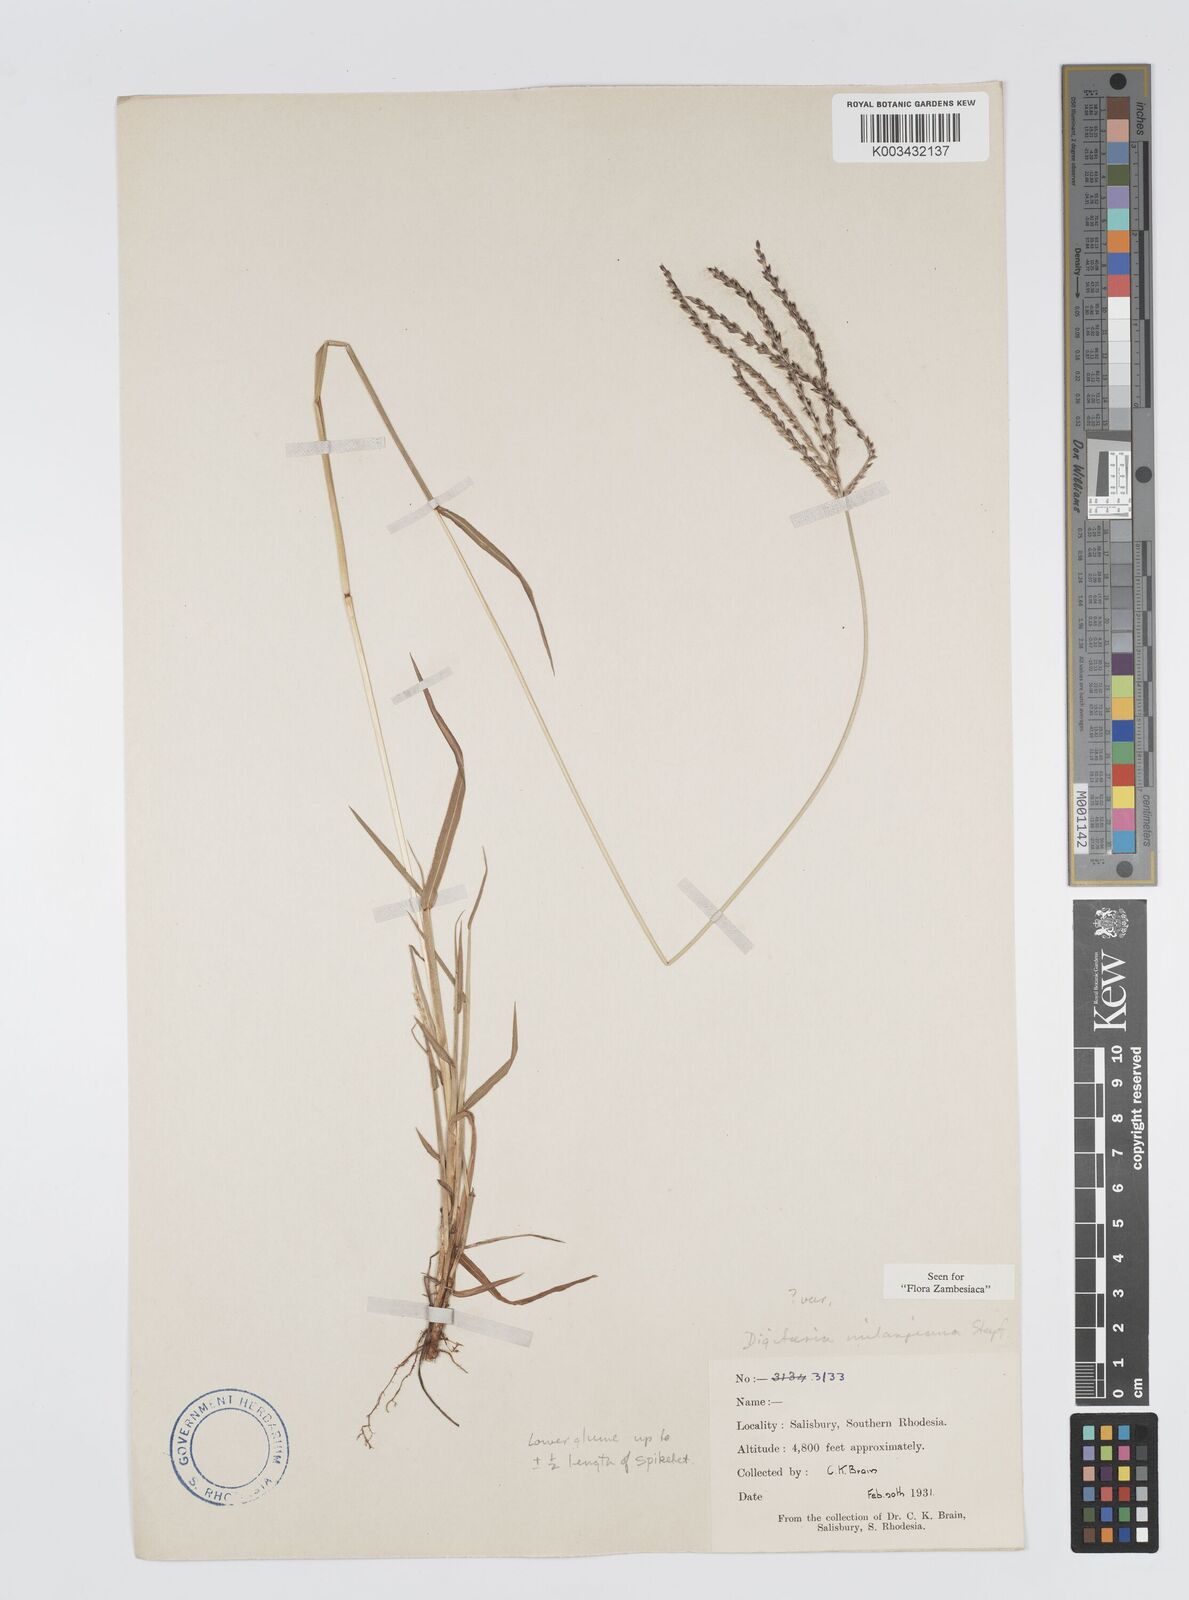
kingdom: Plantae
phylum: Tracheophyta
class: Liliopsida
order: Poales
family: Poaceae
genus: Digitaria
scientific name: Digitaria milanjiana
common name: Madagascar crabgrass
